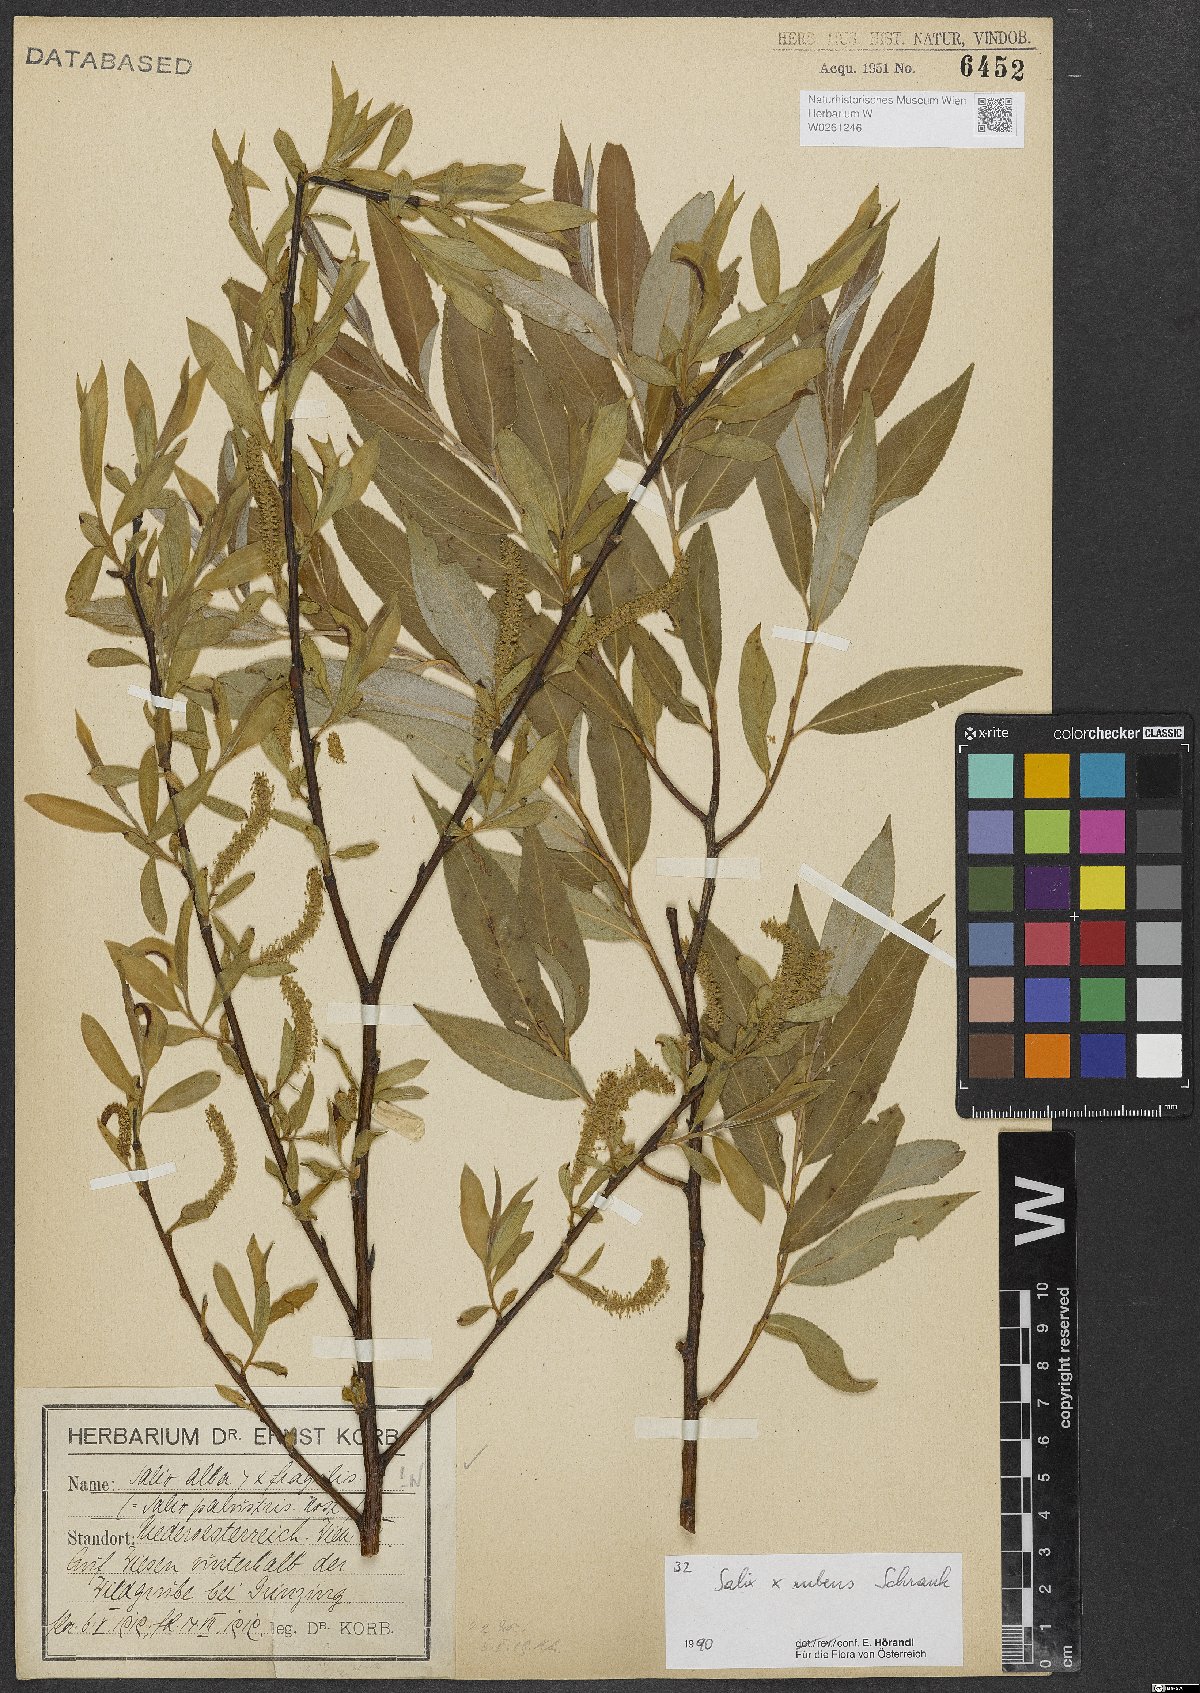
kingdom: Plantae
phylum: Tracheophyta
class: Magnoliopsida
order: Malpighiales
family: Salicaceae
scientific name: Salicaceae
